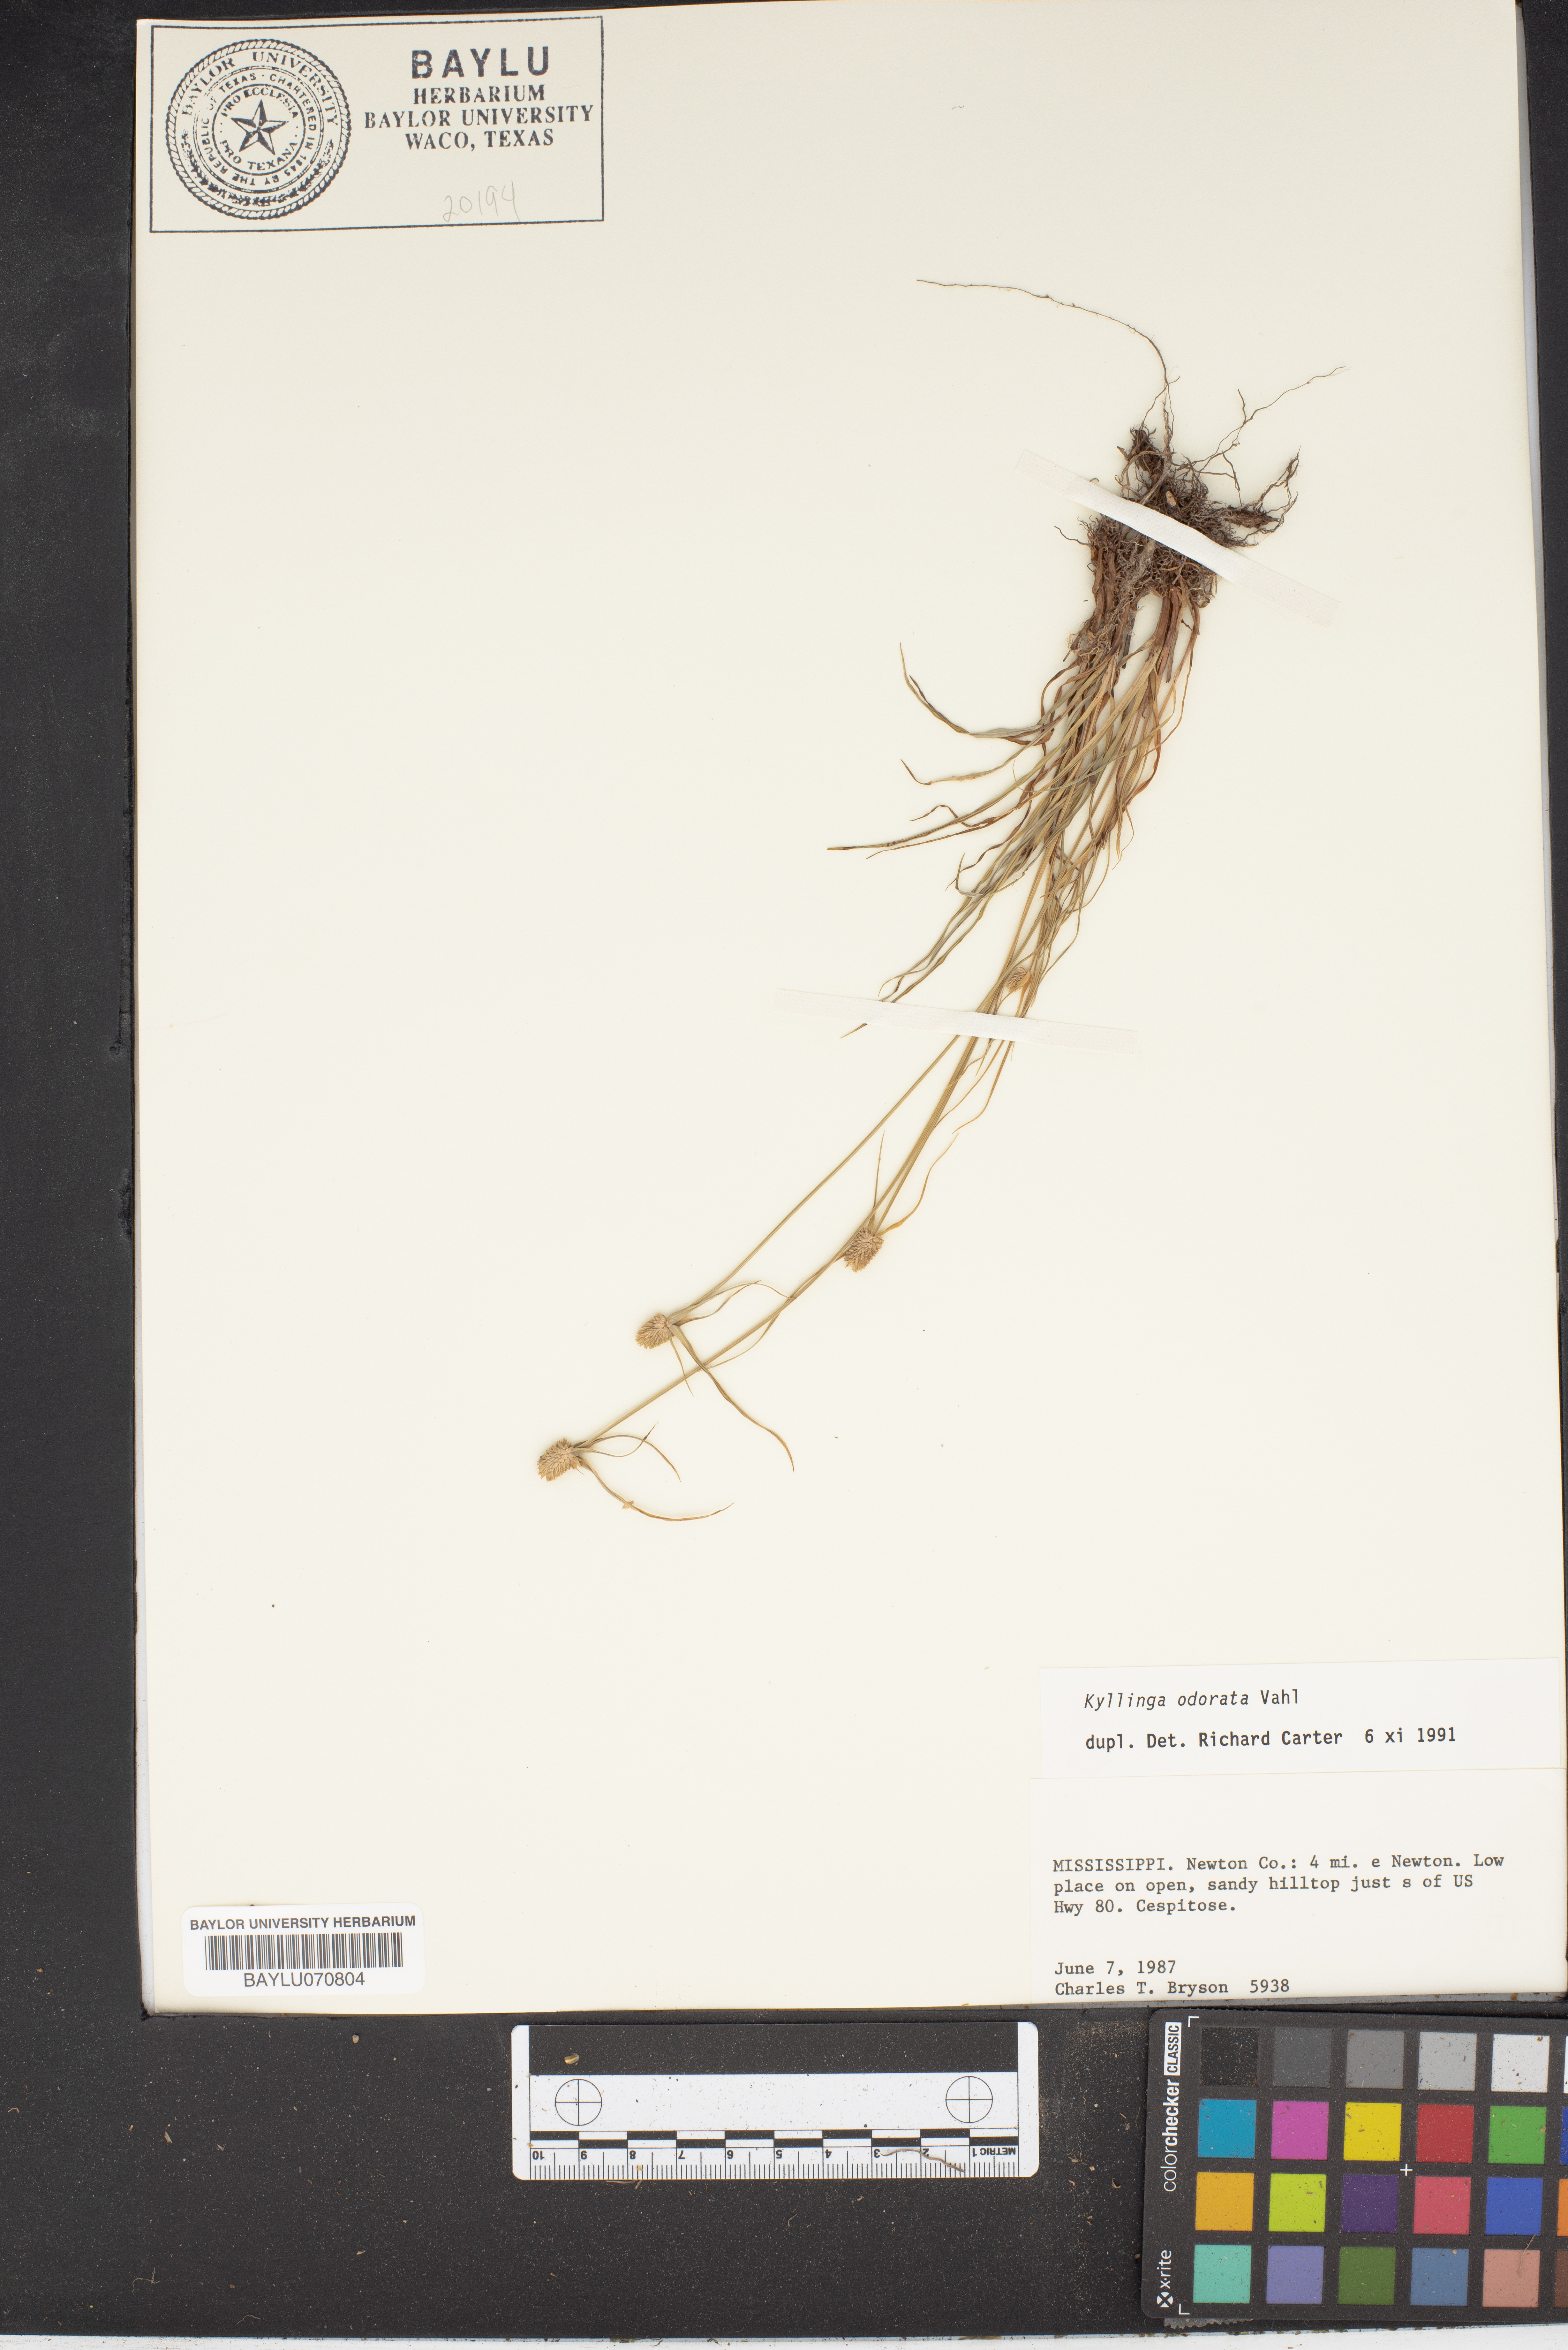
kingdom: Plantae
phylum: Tracheophyta
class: Liliopsida
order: Poales
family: Cyperaceae
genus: Cyperus
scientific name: Cyperus sesquiflorus
